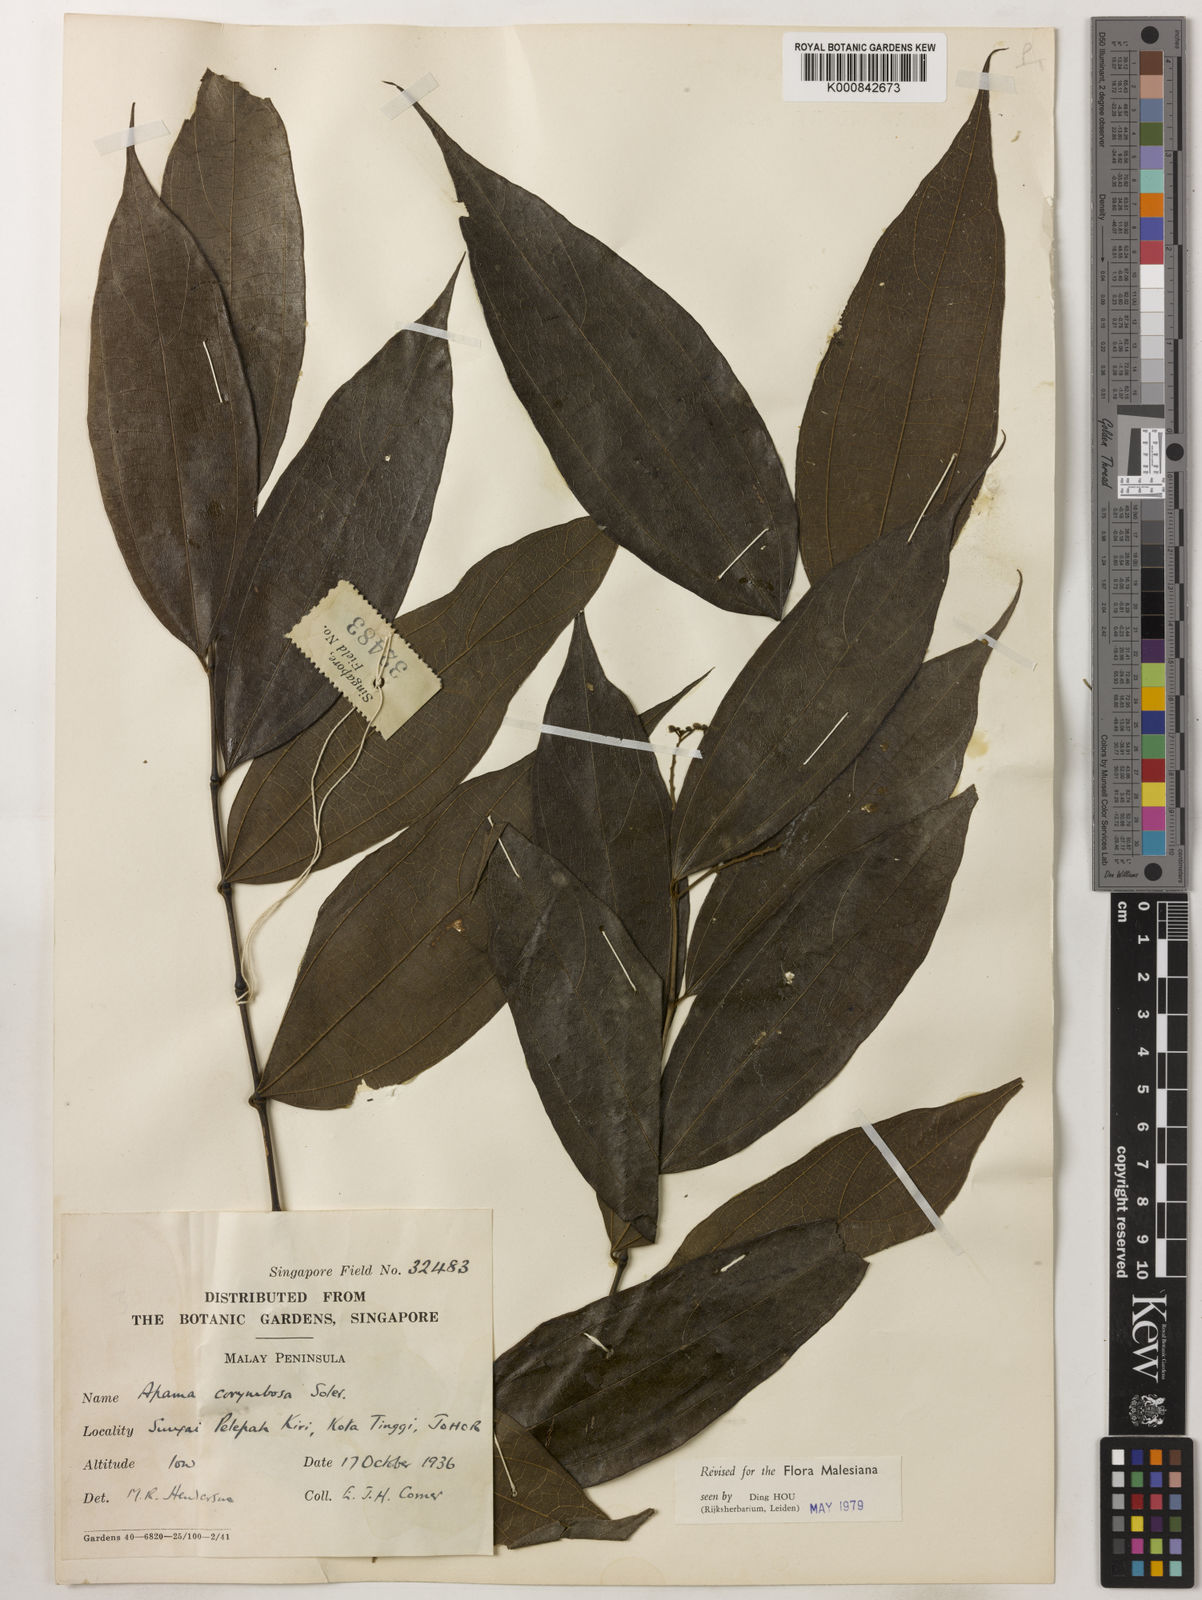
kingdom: Plantae
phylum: Tracheophyta
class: Magnoliopsida
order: Piperales
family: Aristolochiaceae
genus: Thottea
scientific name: Thottea piperiformis
